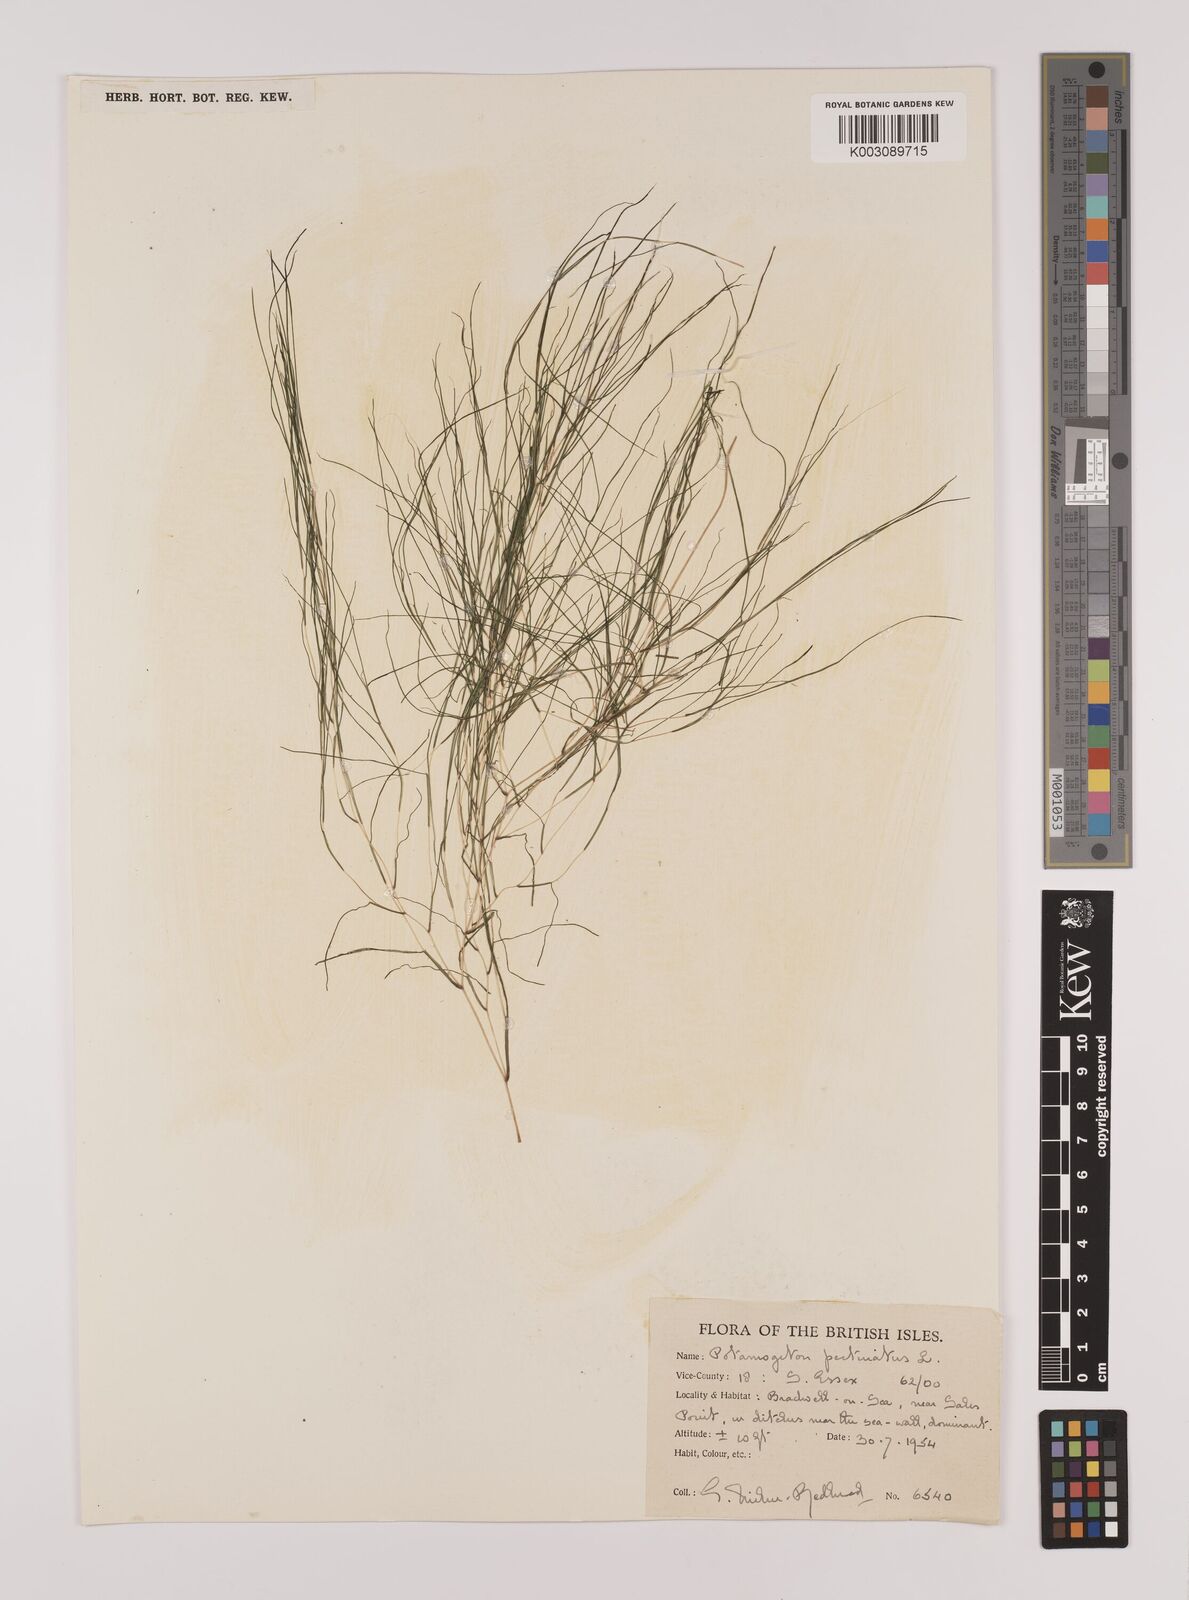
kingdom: Plantae
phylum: Tracheophyta
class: Liliopsida
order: Alismatales
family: Potamogetonaceae
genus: Stuckenia
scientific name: Stuckenia pectinata
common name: Sago pondweed
